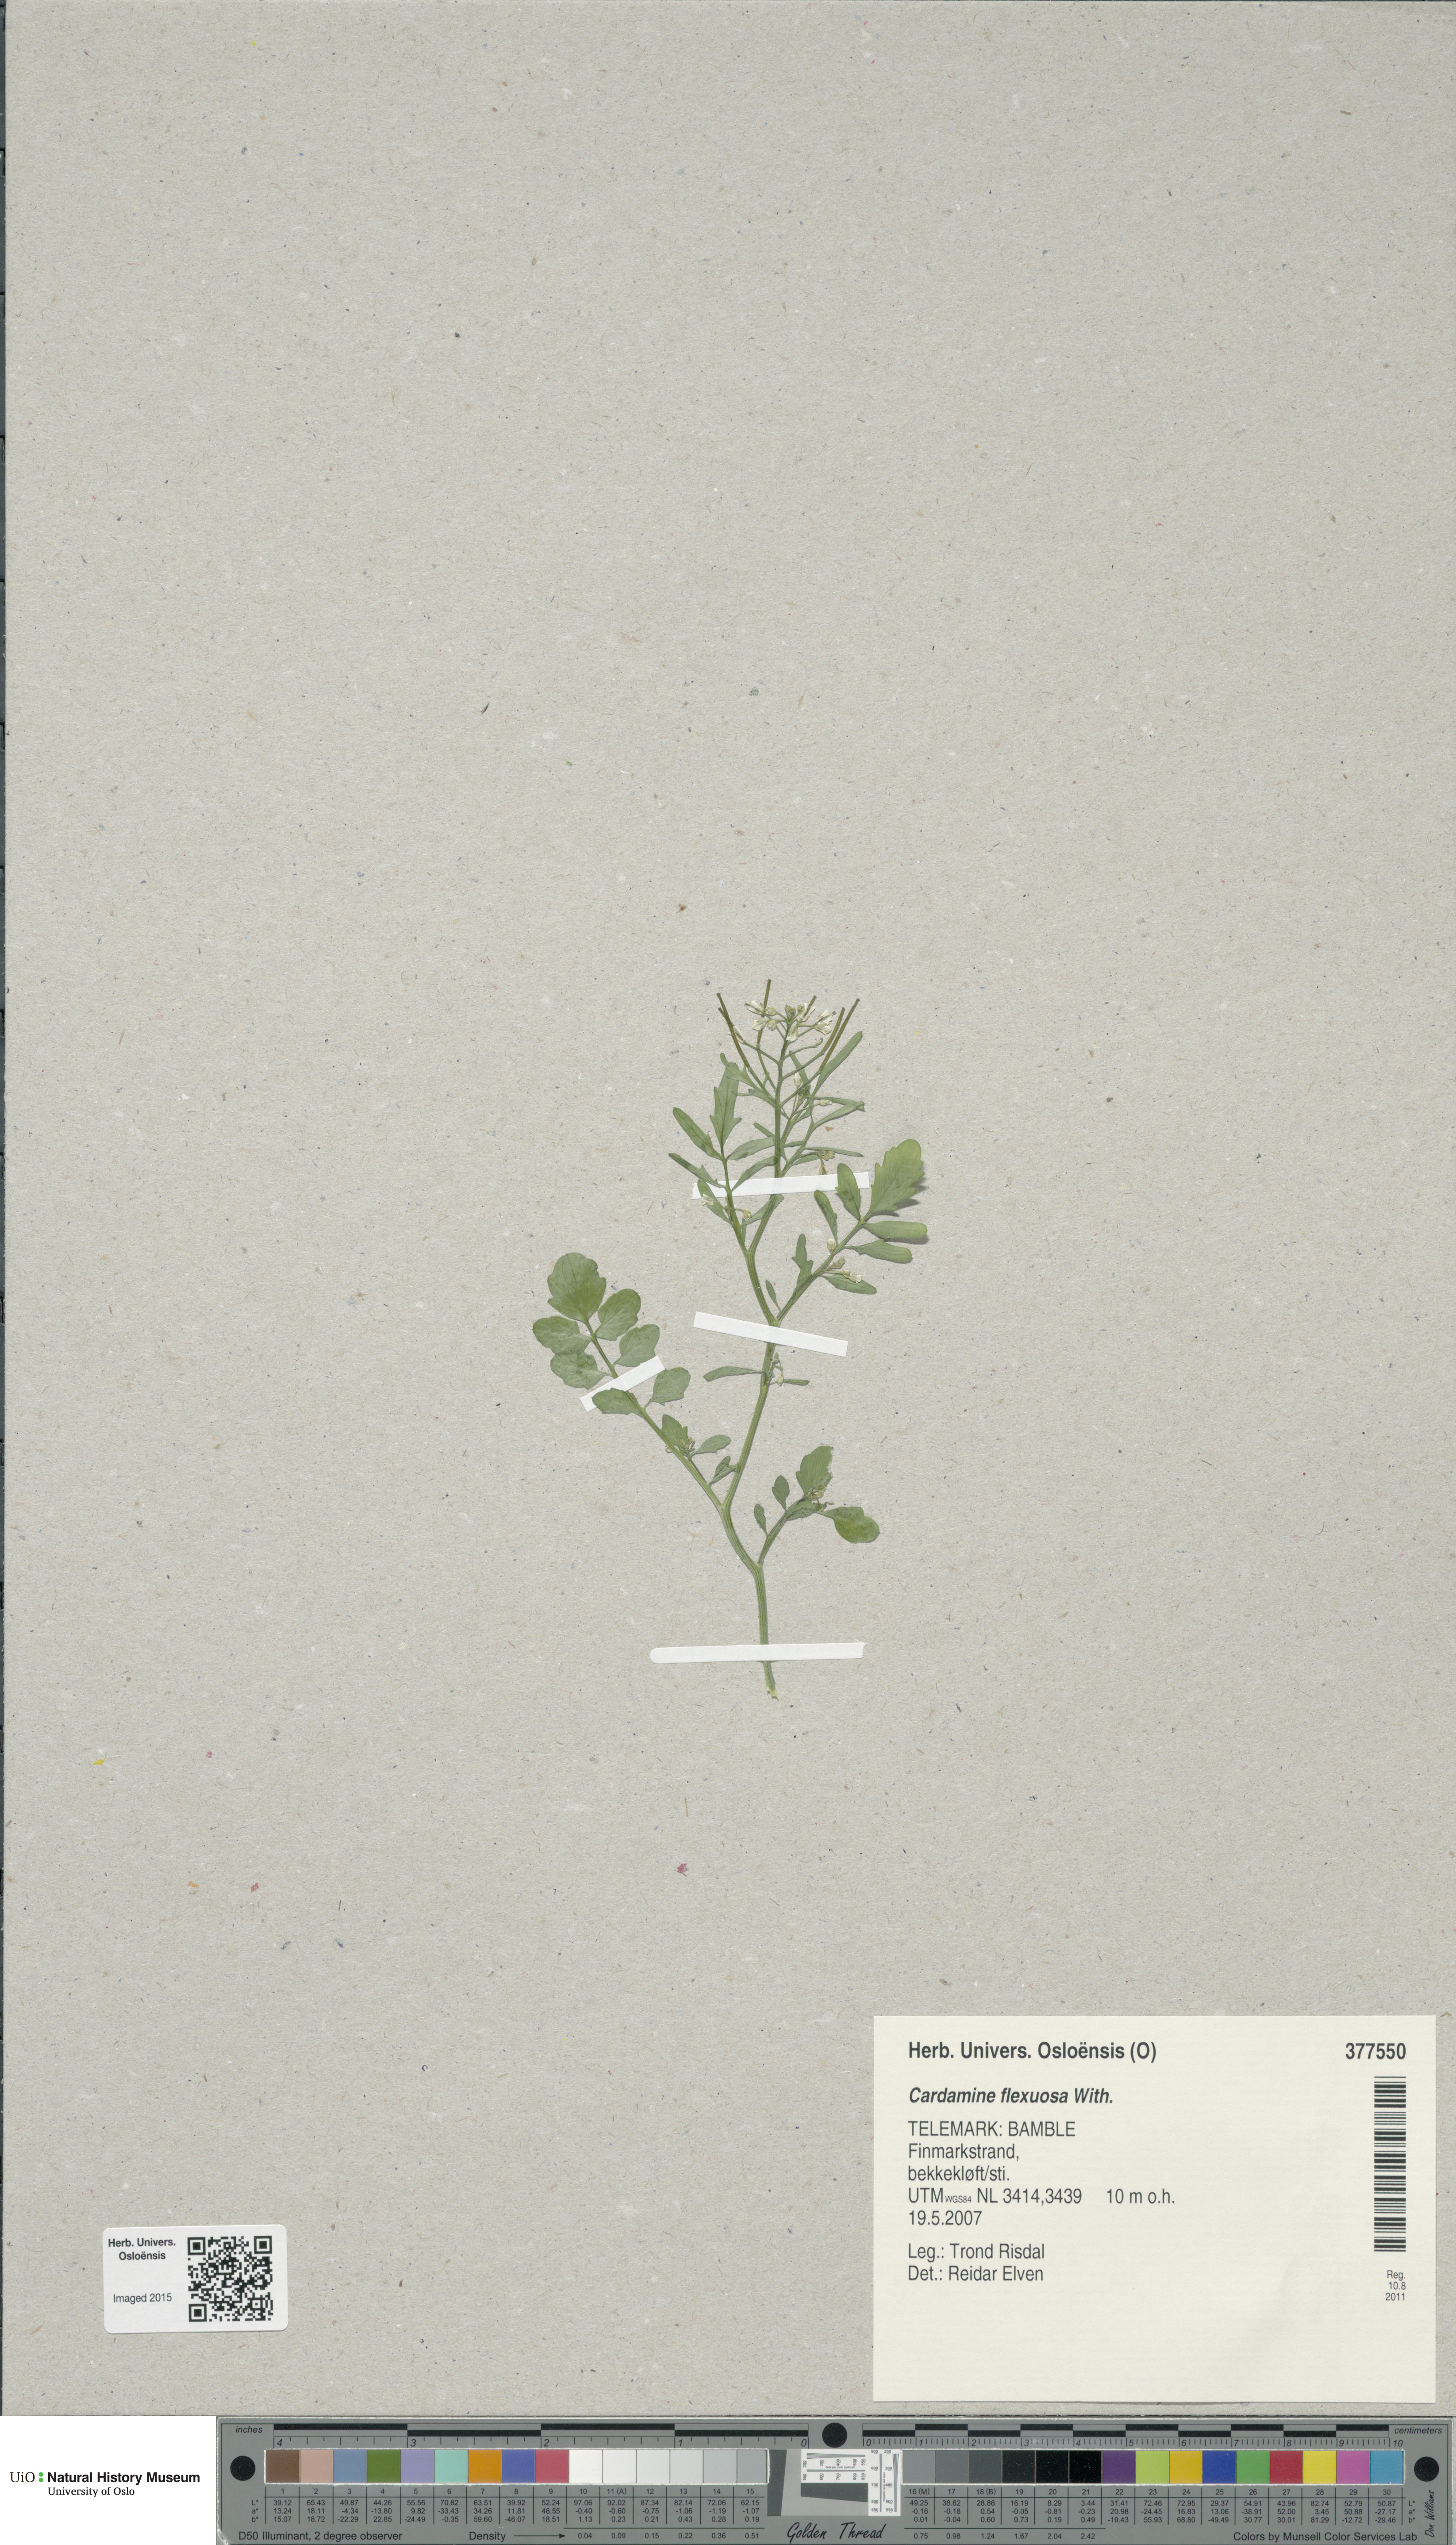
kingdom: Plantae
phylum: Tracheophyta
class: Magnoliopsida
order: Brassicales
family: Brassicaceae
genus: Cardamine
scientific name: Cardamine flexuosa
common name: Woodland bittercress
